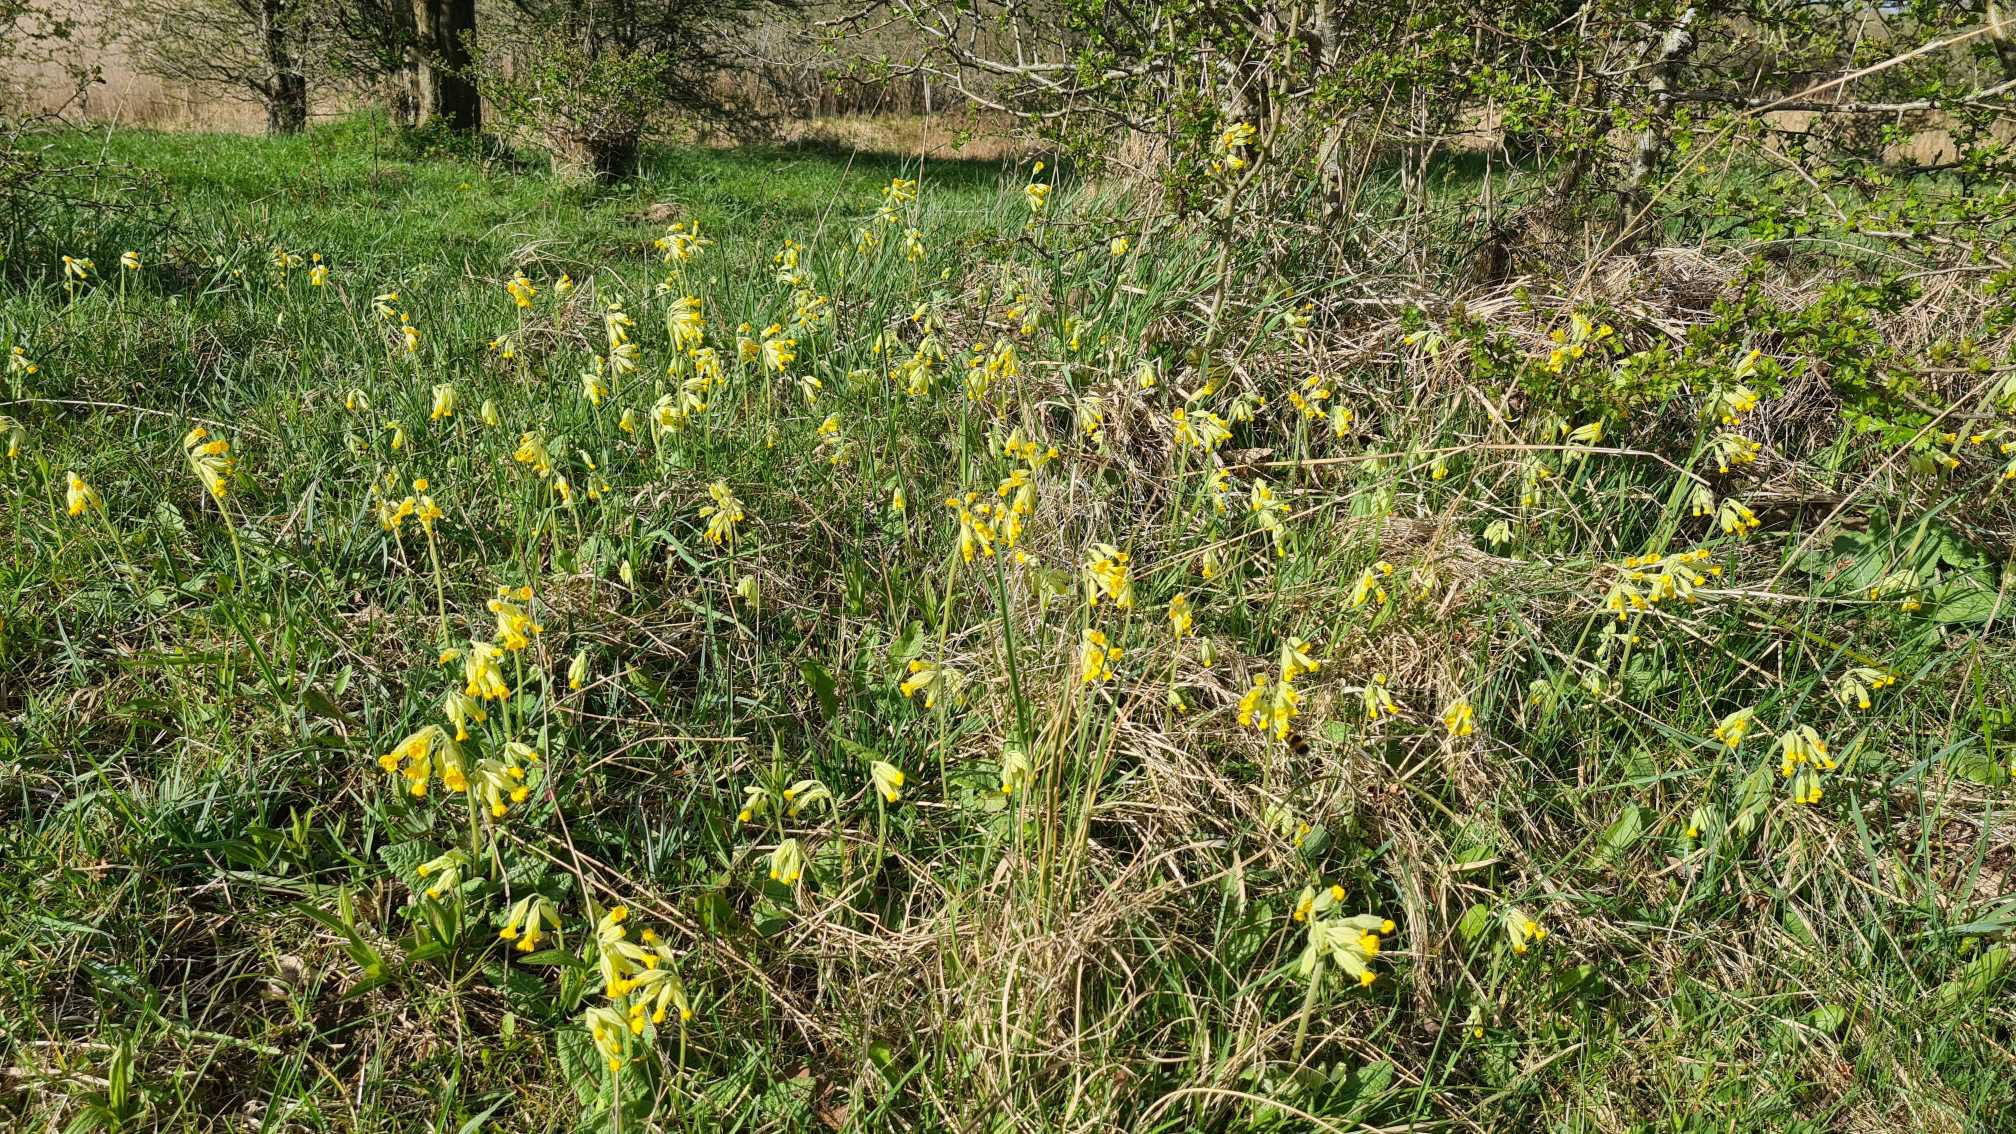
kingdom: Plantae
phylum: Tracheophyta
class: Magnoliopsida
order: Ericales
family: Primulaceae
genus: Primula
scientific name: Primula veris
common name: Hulkravet kodriver
